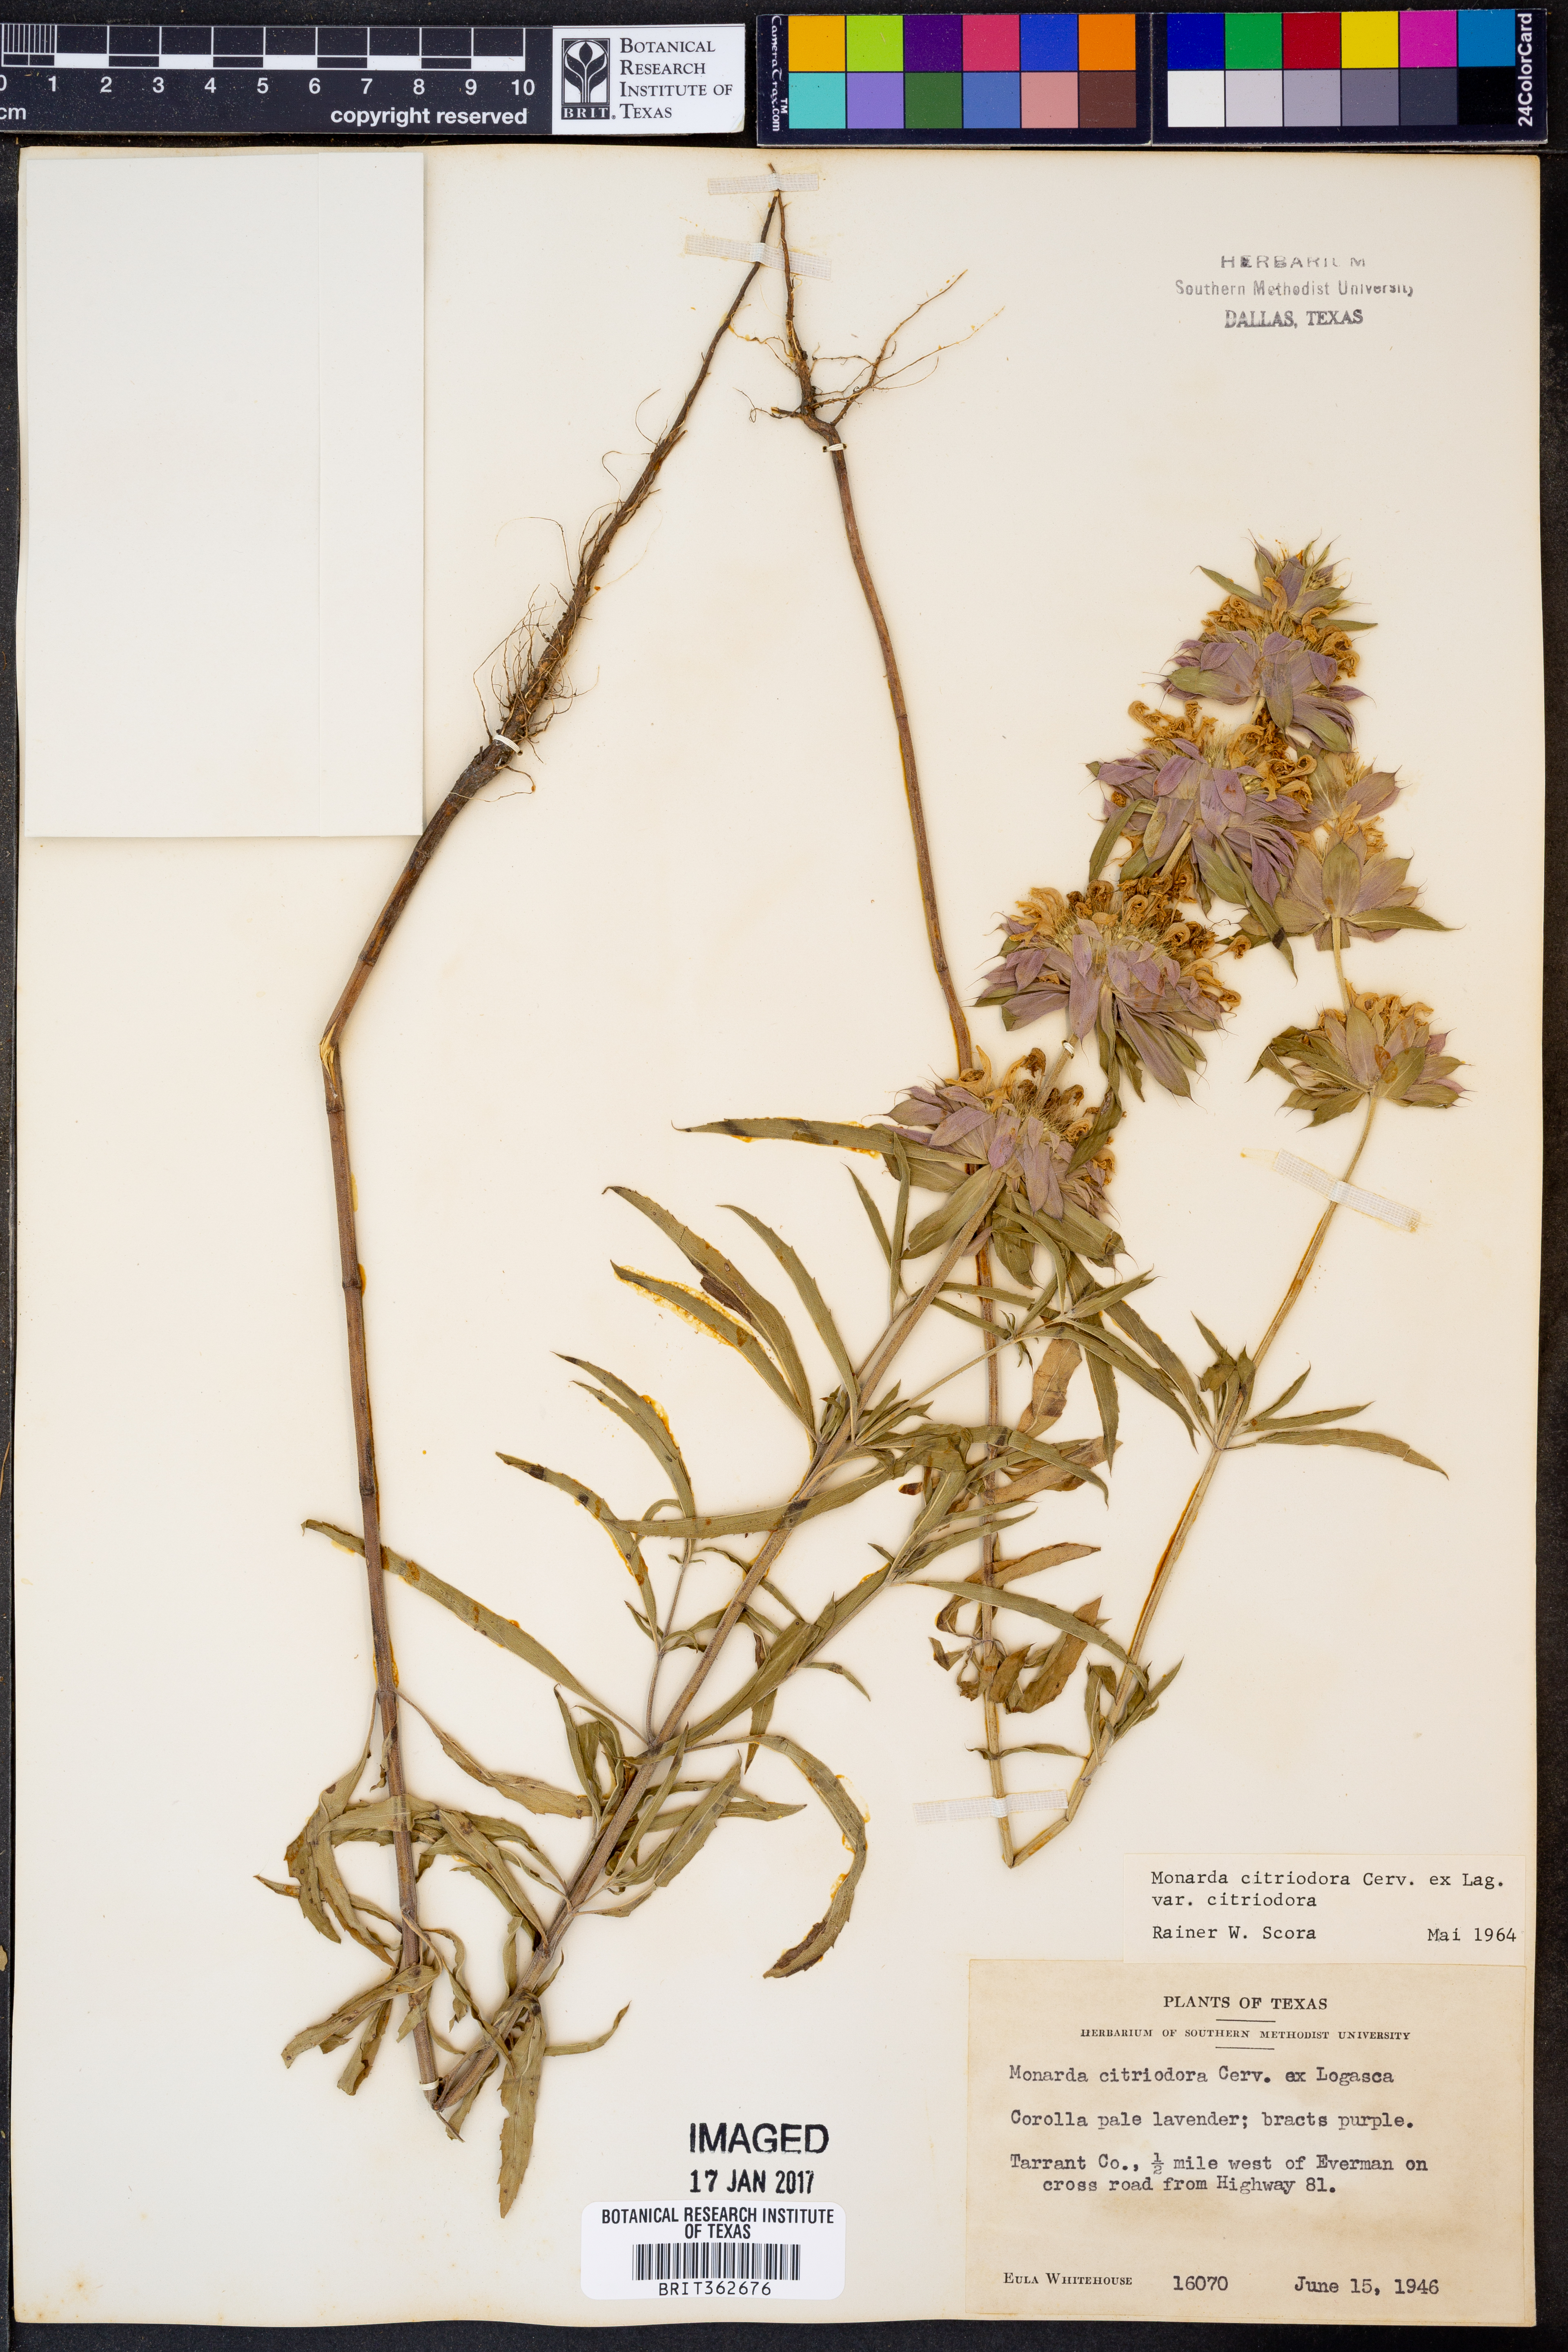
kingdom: Plantae
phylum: Tracheophyta
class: Magnoliopsida
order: Lamiales
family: Lamiaceae
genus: Monarda
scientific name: Monarda citriodora
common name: Lemon beebalm
